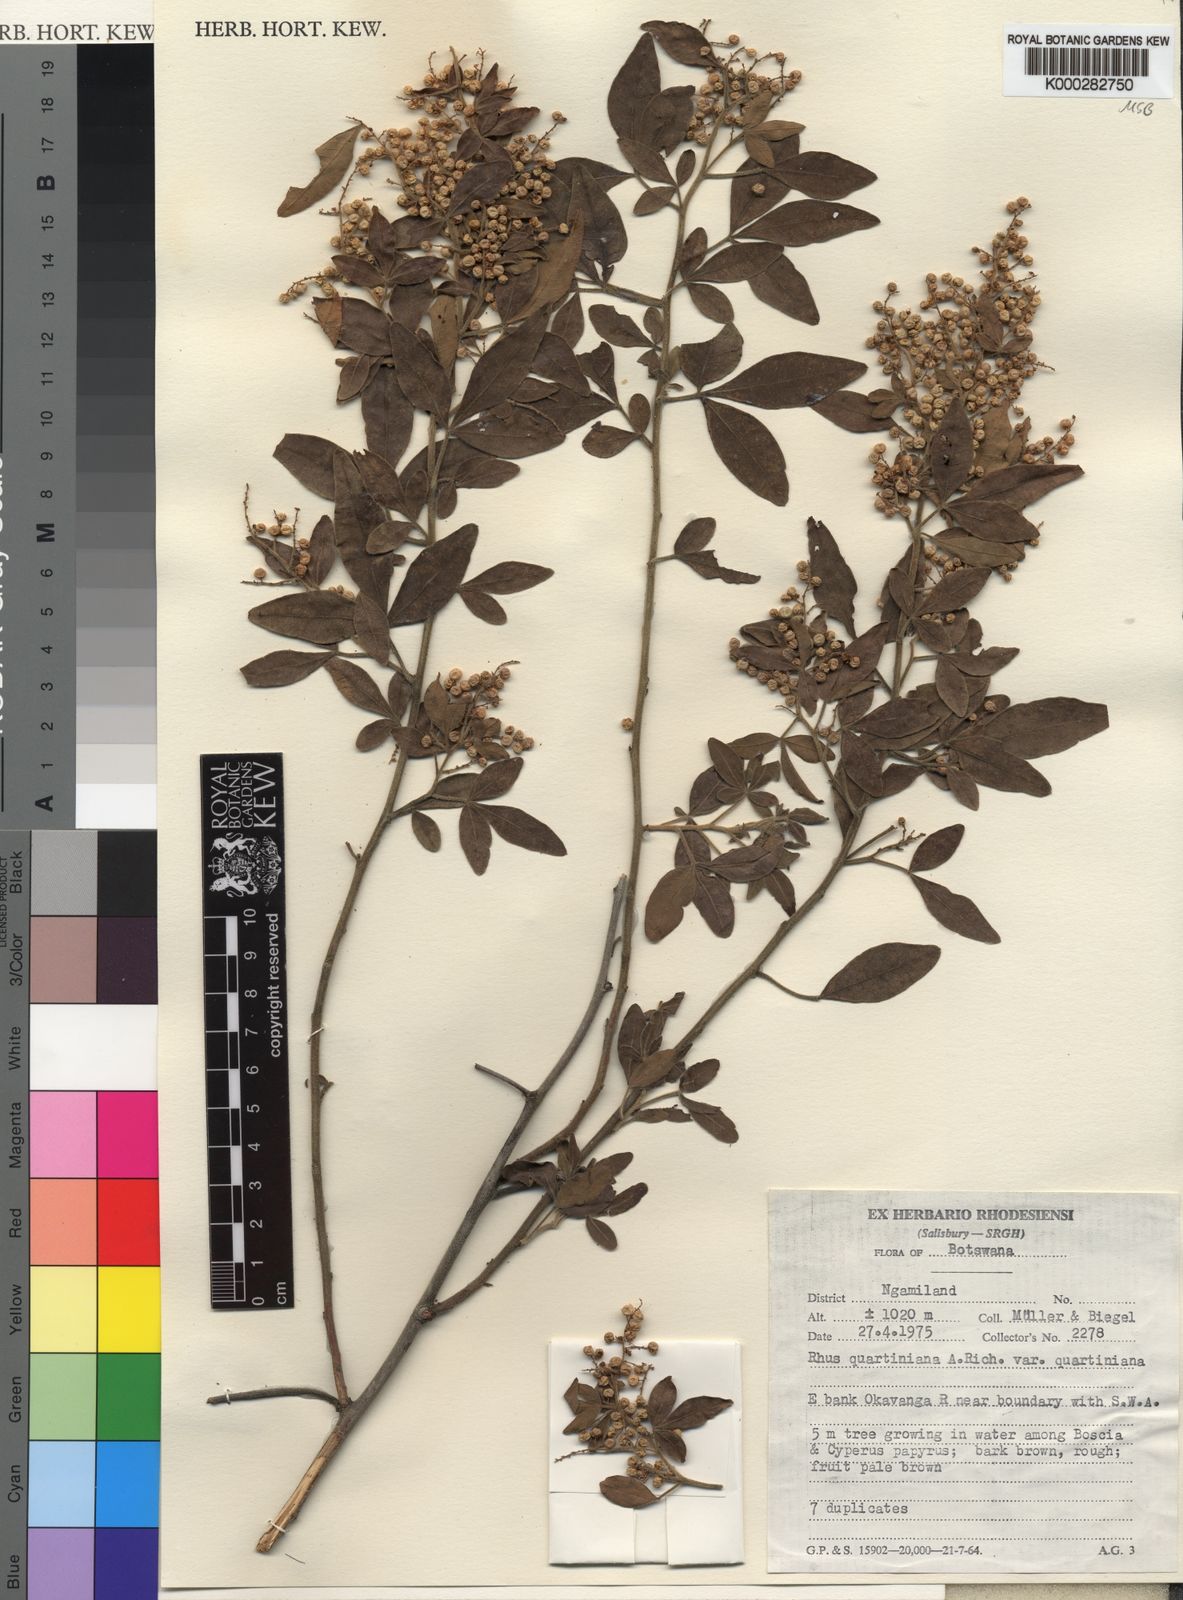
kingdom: Plantae
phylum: Tracheophyta
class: Magnoliopsida
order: Sapindales
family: Anacardiaceae
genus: Searsia
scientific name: Searsia quartiniana
